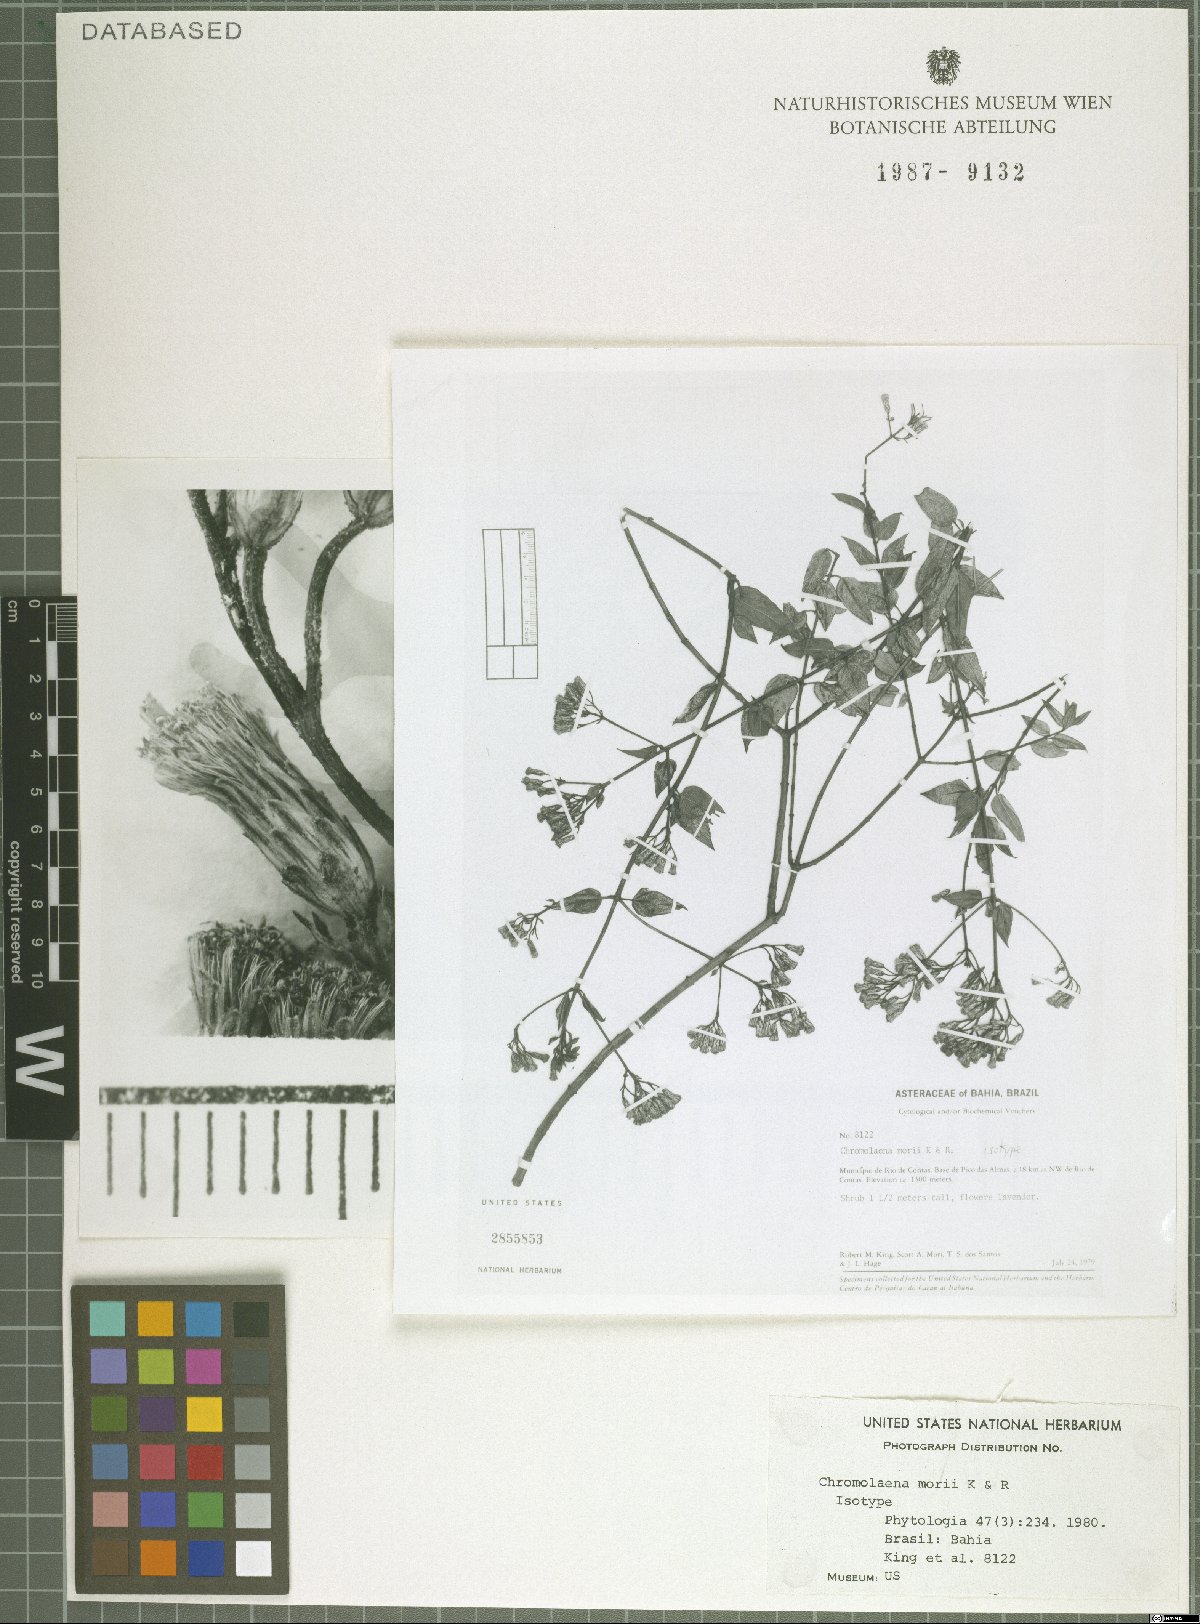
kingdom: Plantae
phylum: Tracheophyta
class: Magnoliopsida
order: Asterales
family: Asteraceae
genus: Chromolaena
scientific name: Chromolaena morii
